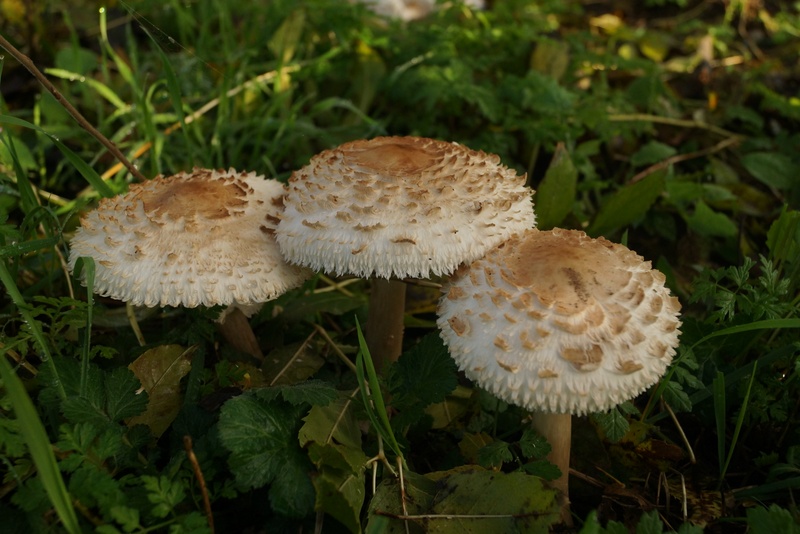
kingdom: Fungi
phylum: Basidiomycota
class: Agaricomycetes
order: Agaricales
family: Agaricaceae
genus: Chlorophyllum
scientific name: Chlorophyllum rhacodes
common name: ægte rabarberhat
